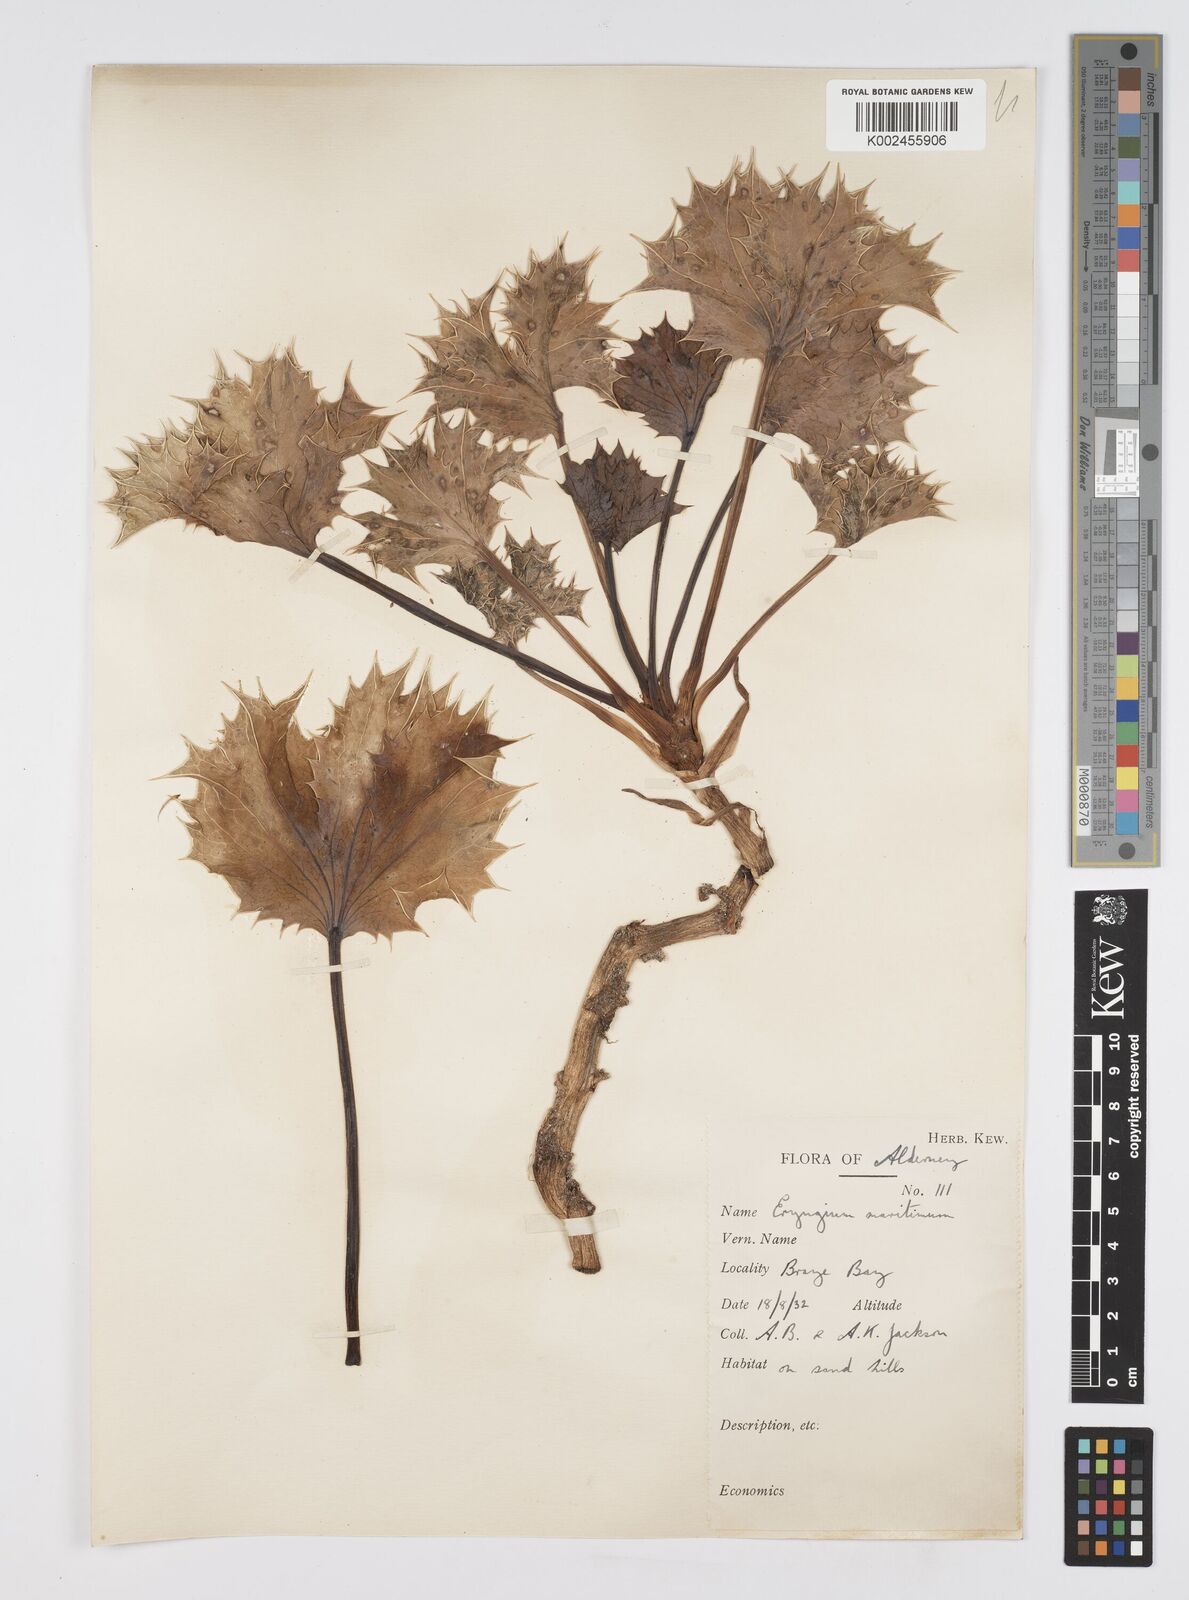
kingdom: Plantae
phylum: Tracheophyta
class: Magnoliopsida
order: Apiales
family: Apiaceae
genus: Eryngium
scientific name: Eryngium maritimum
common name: Sea-holly
